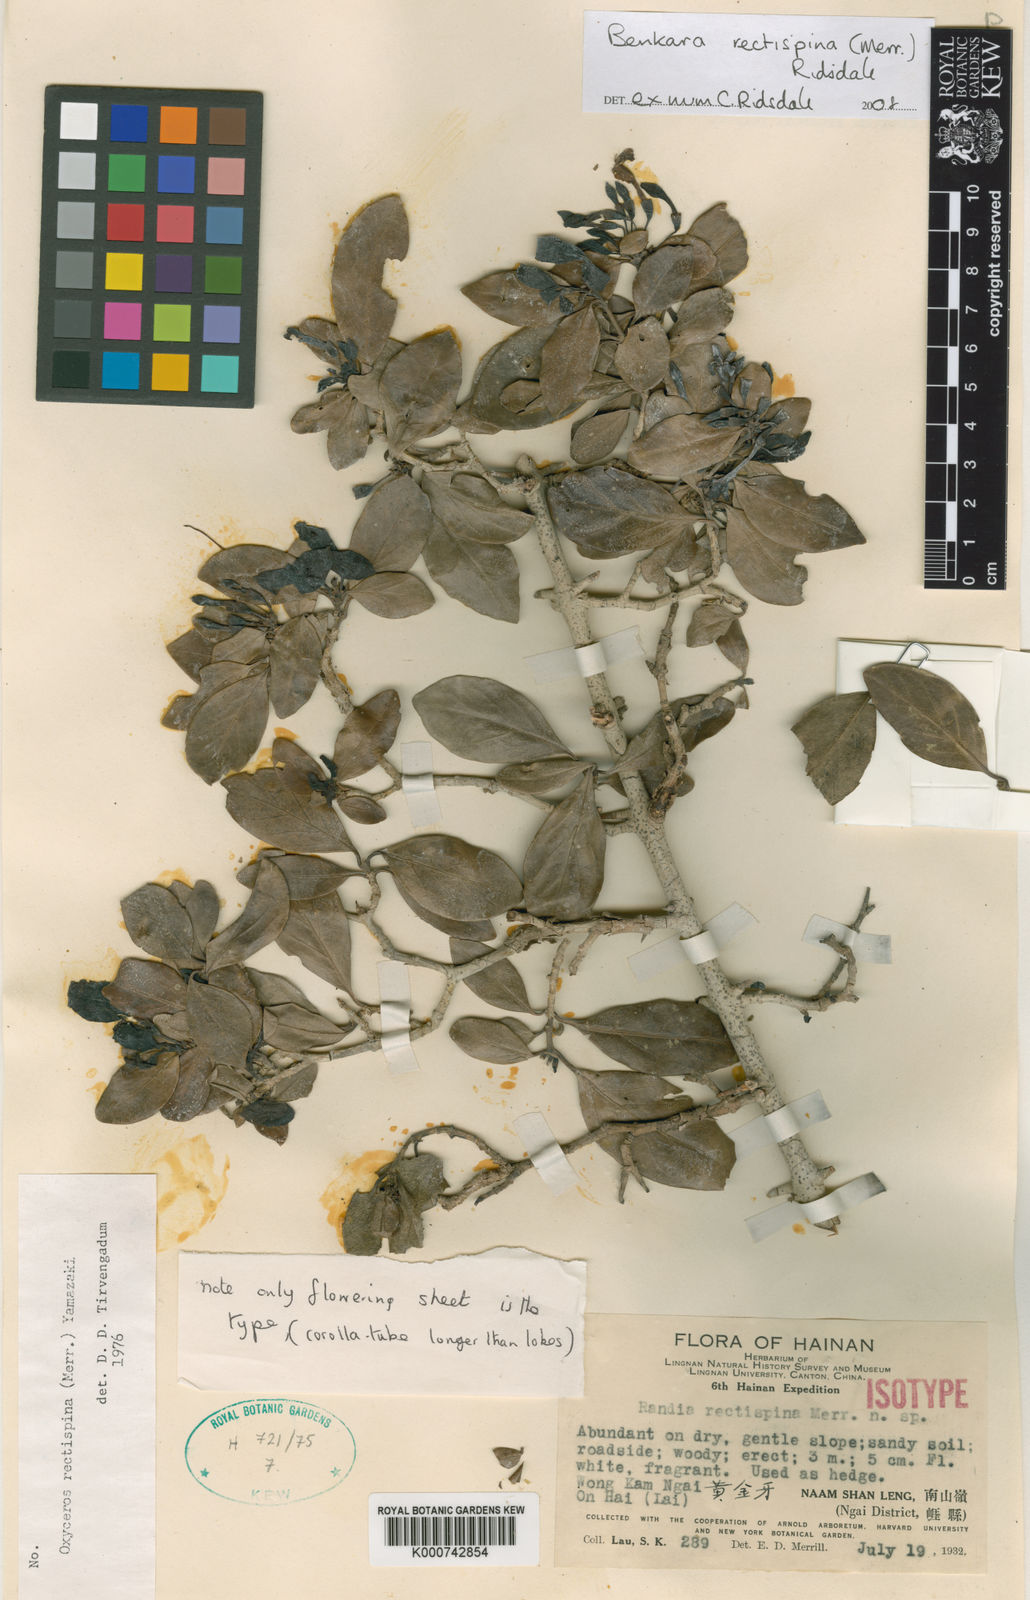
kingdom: Plantae
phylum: Tracheophyta
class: Magnoliopsida
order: Gentianales
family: Rubiaceae
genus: Benkara
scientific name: Benkara rectispina
